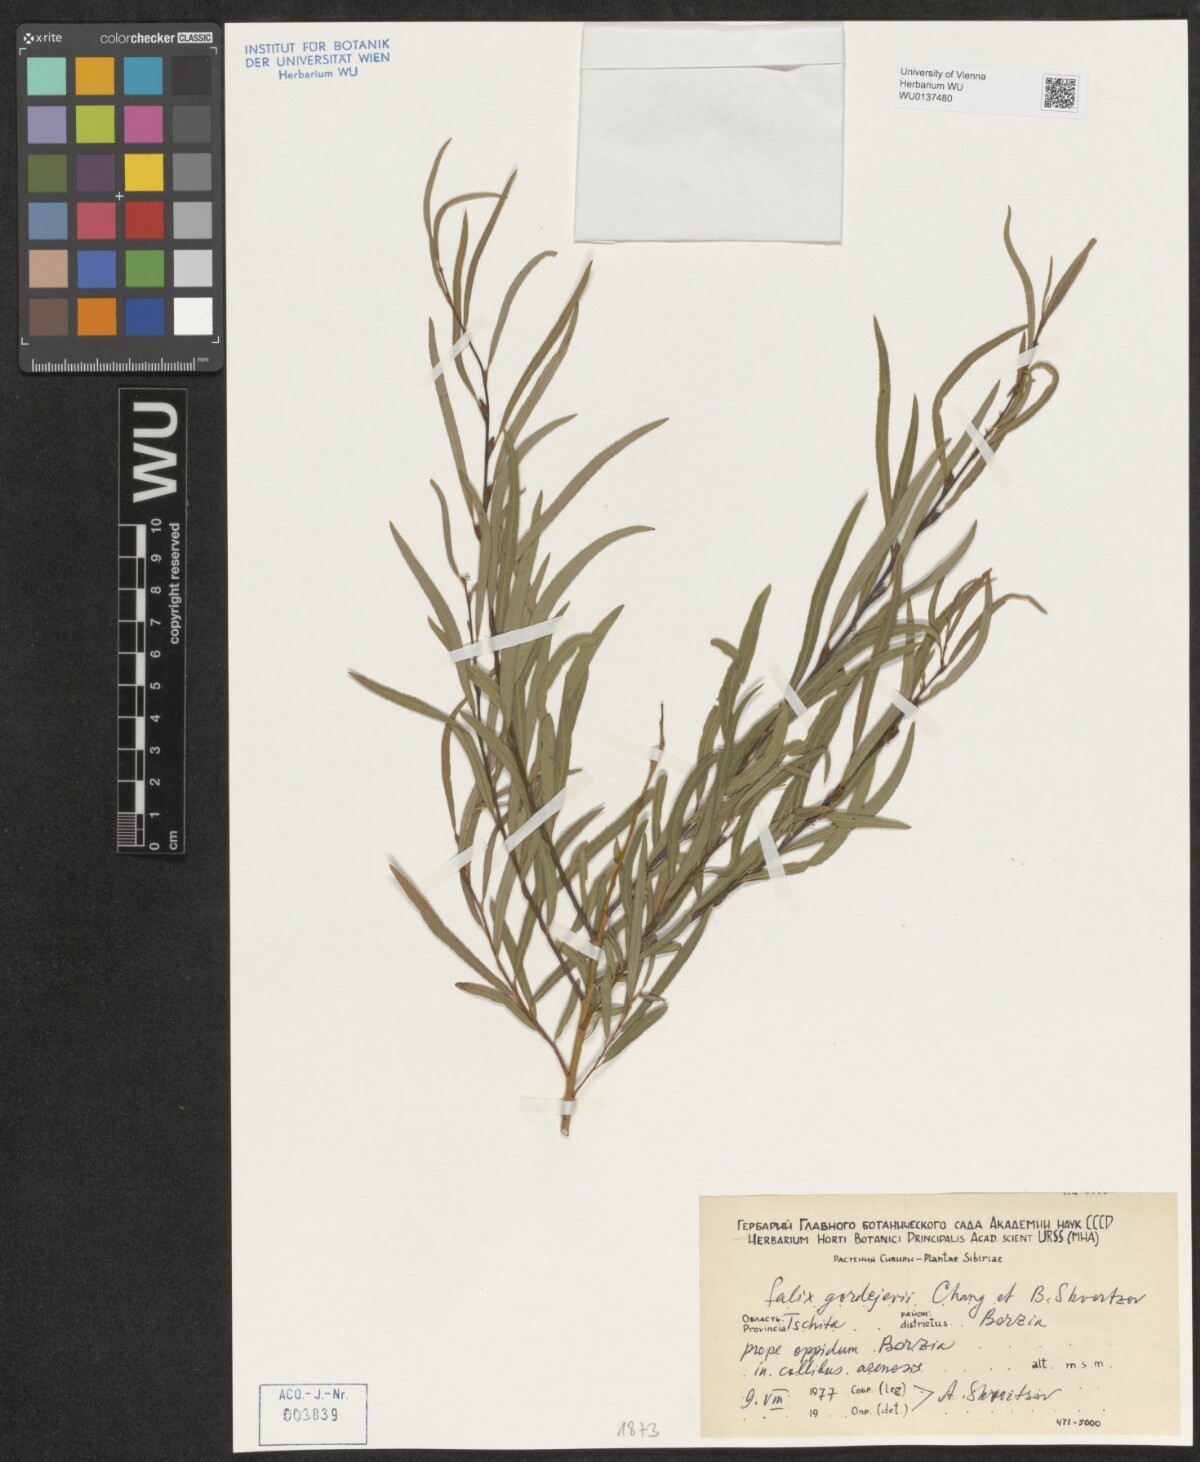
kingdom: Plantae
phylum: Tracheophyta
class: Magnoliopsida
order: Malpighiales
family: Salicaceae
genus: Salix
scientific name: Salix gordejevii
